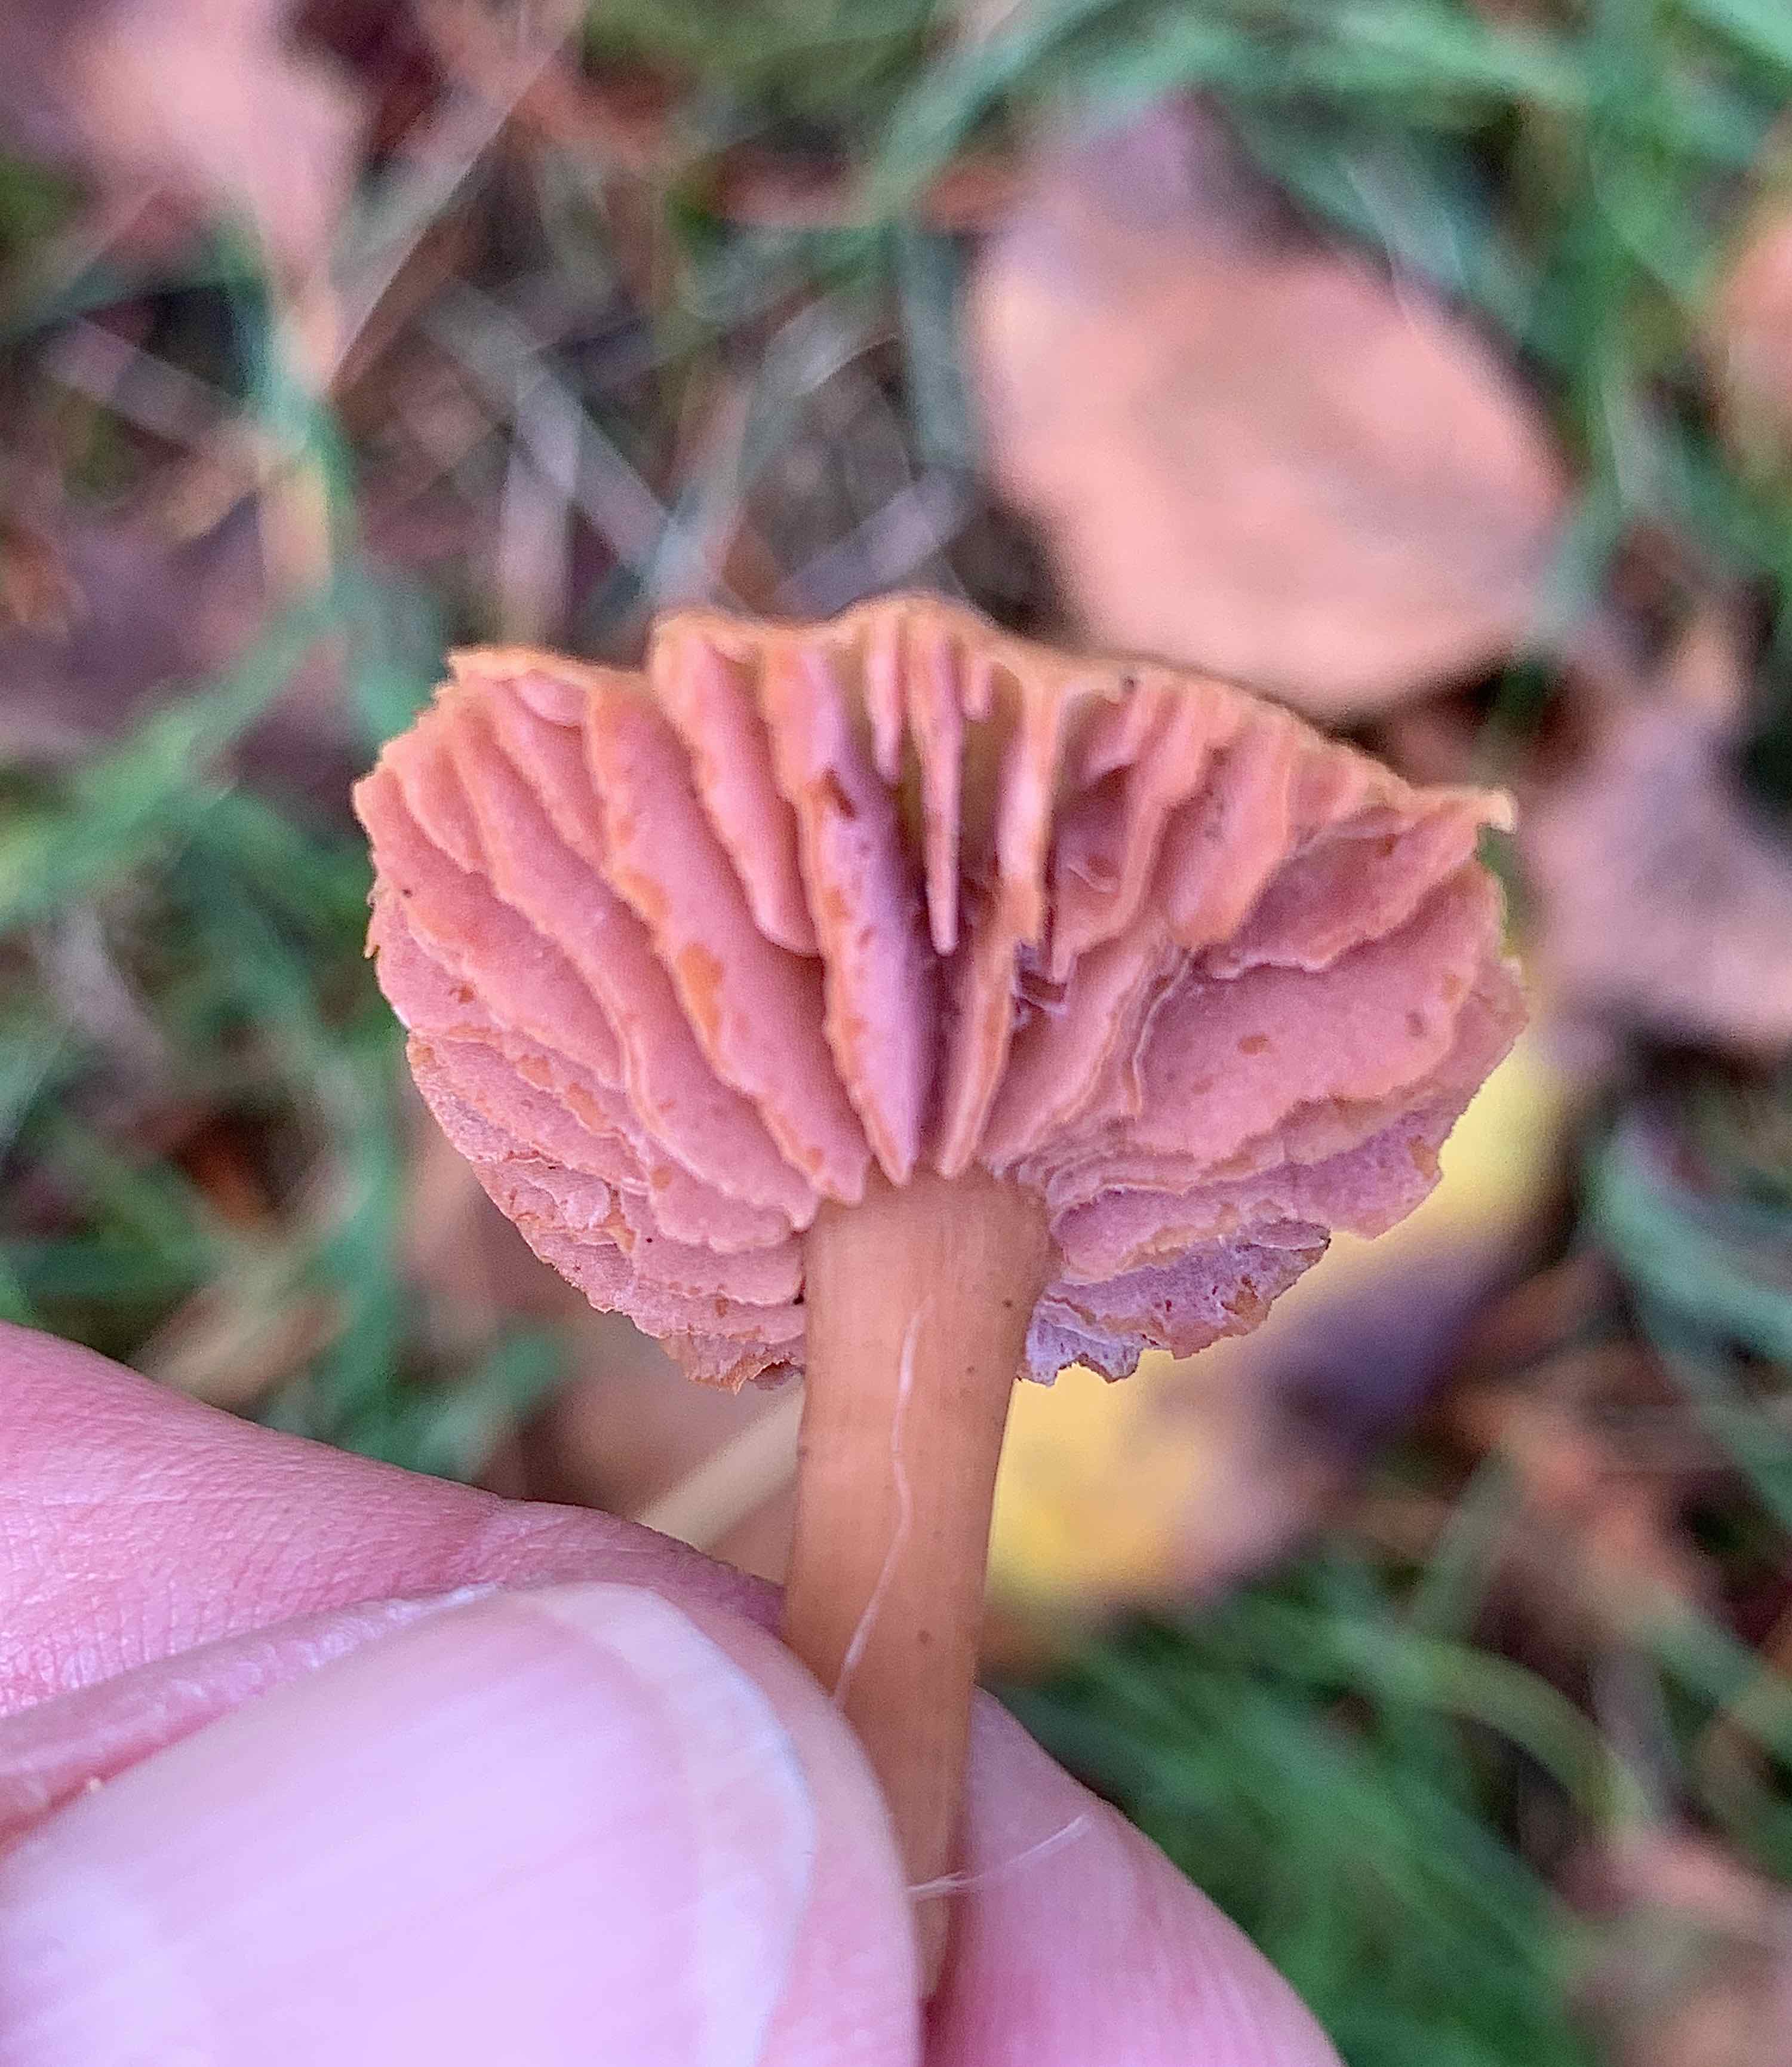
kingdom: Fungi
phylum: Basidiomycota
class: Agaricomycetes
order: Agaricales
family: Hydnangiaceae
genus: Laccaria
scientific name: Laccaria laccata
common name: rød ametysthat
